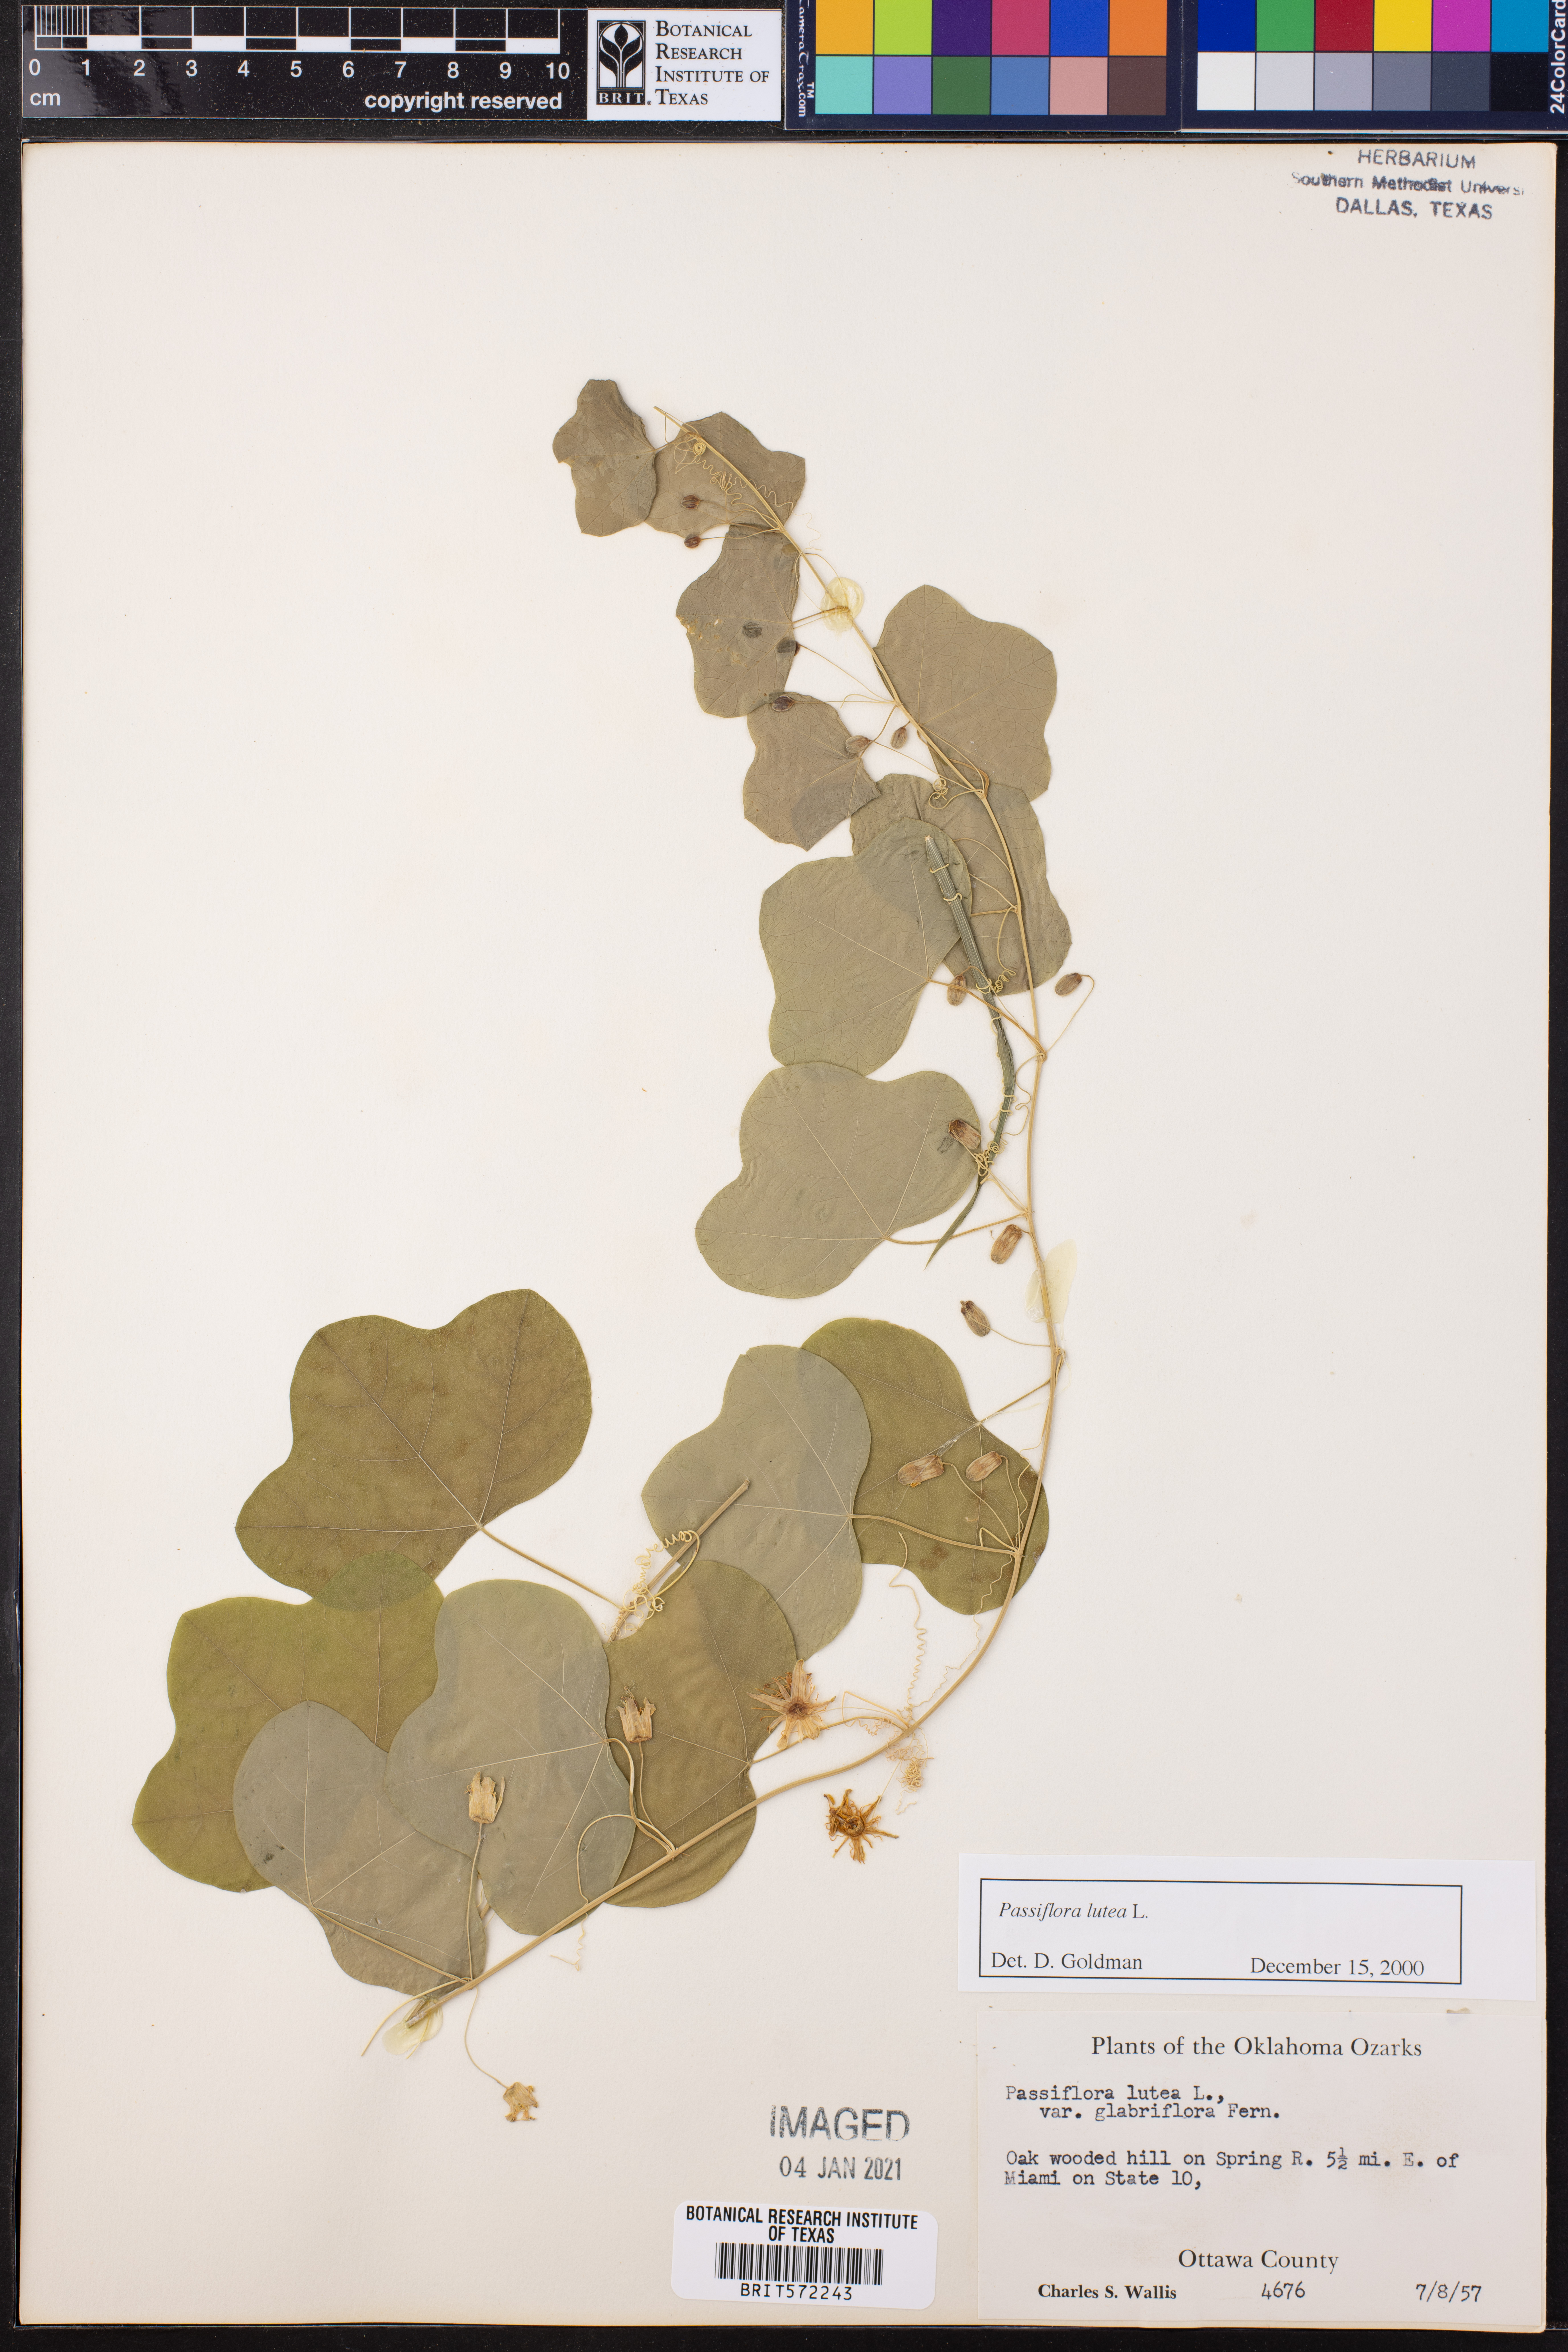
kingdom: Plantae
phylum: Tracheophyta
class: Magnoliopsida
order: Malpighiales
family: Passifloraceae
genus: Passiflora
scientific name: Passiflora lutea
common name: Yellow passionflower
